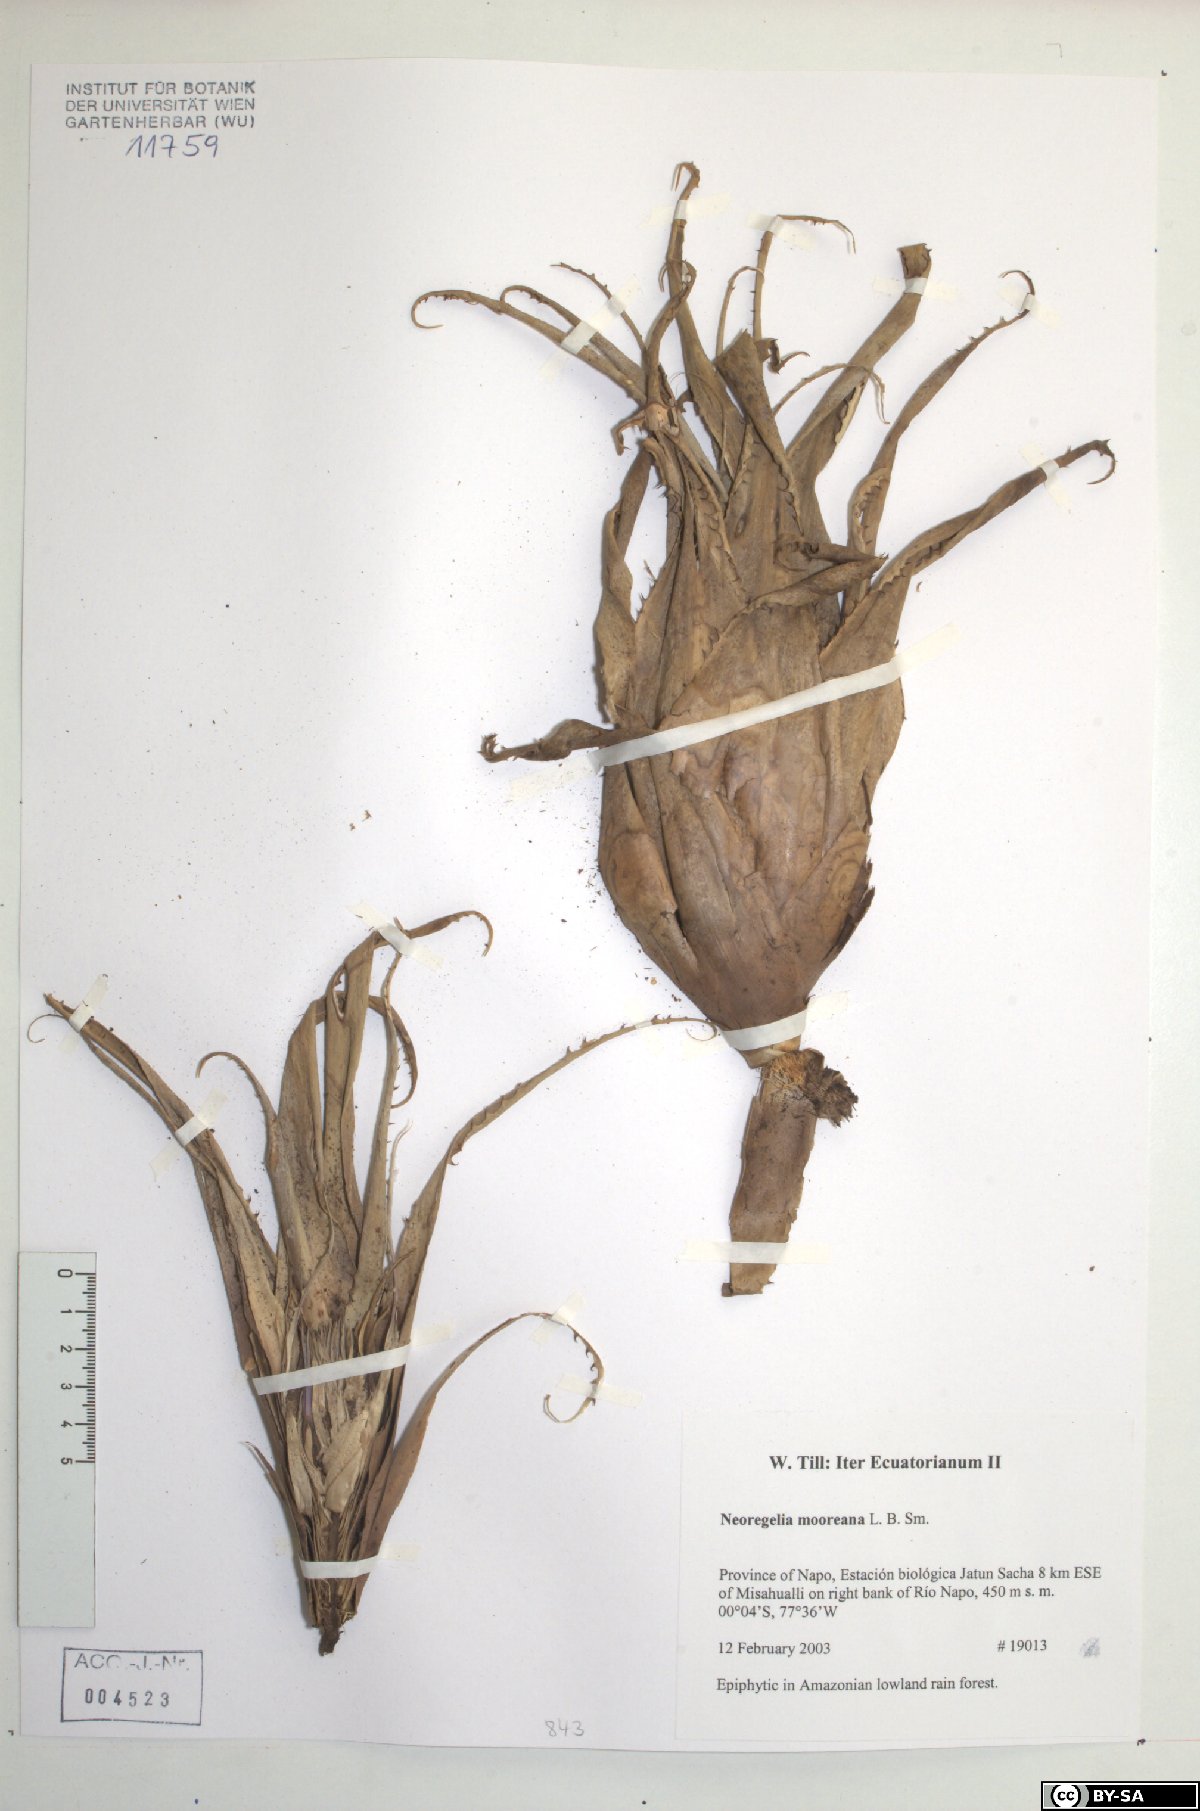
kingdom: Plantae
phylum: Tracheophyta
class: Liliopsida
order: Poales
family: Bromeliaceae
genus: Hylaeaicum
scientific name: Hylaeaicum mooreanum
